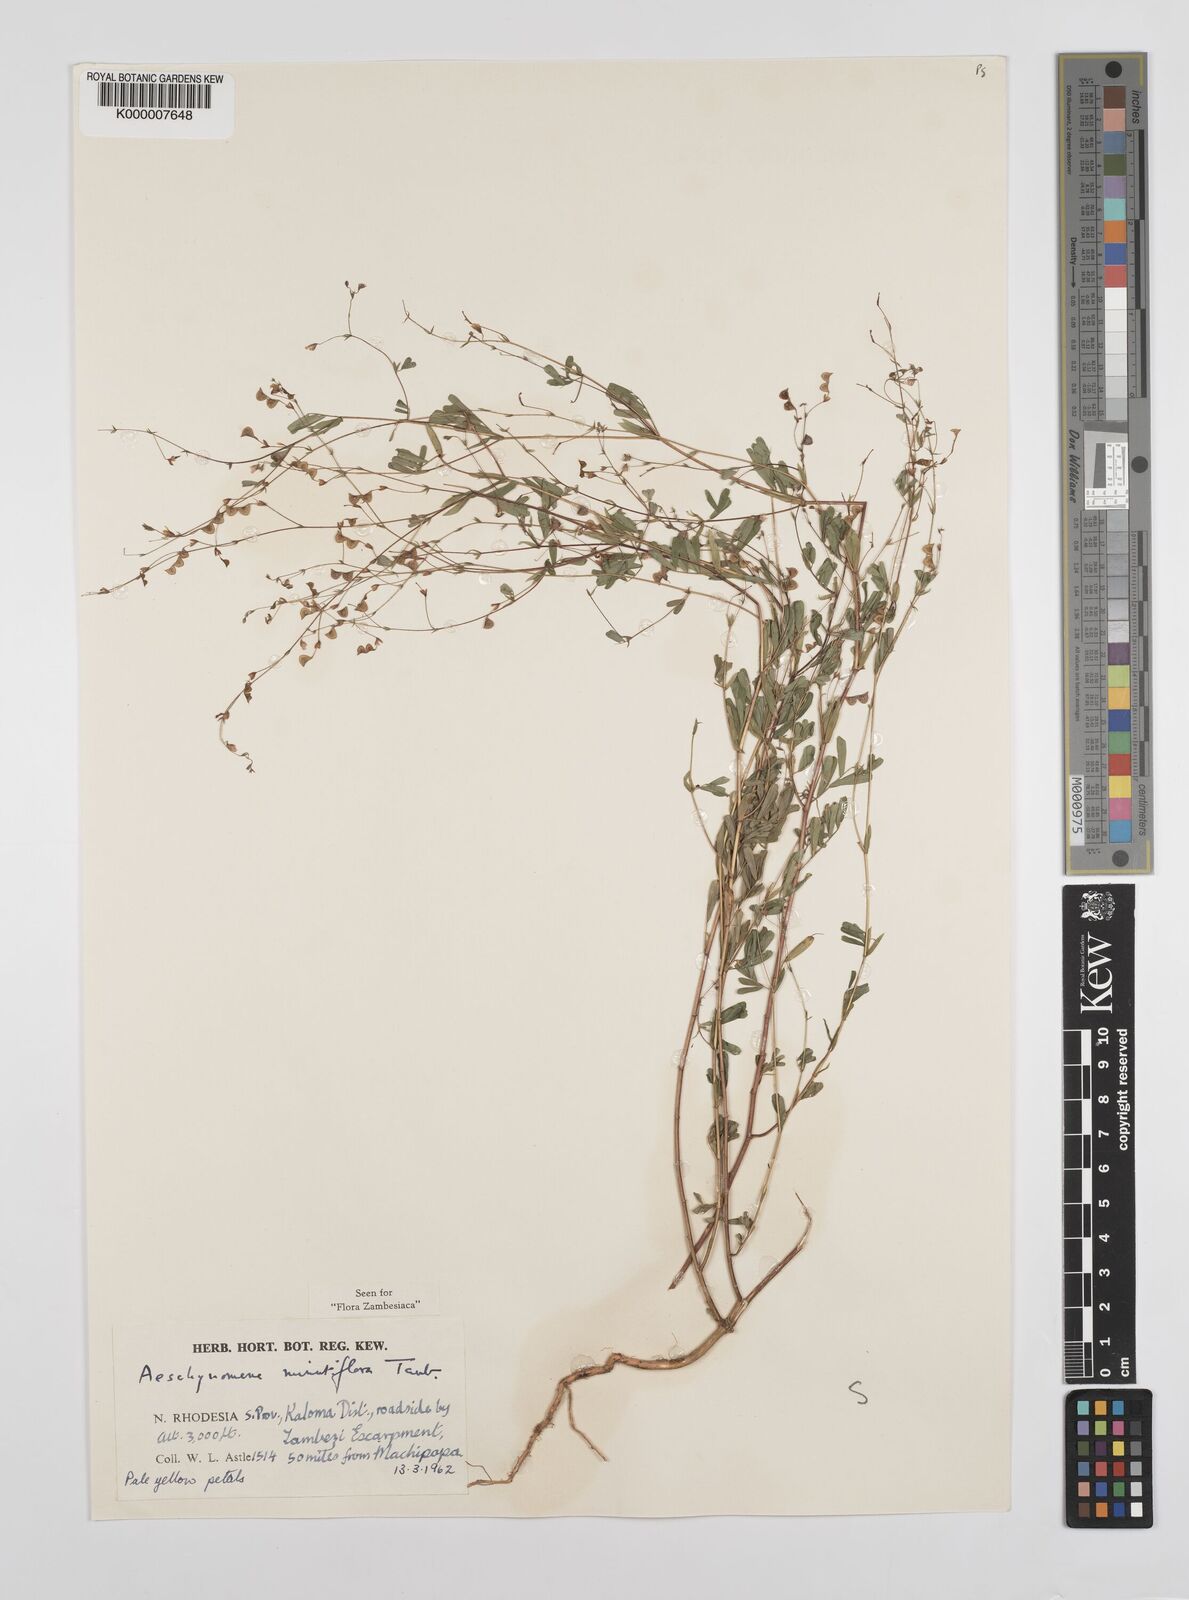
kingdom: Plantae
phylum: Tracheophyta
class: Magnoliopsida
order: Fabales
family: Fabaceae
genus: Aeschynomene
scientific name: Aeschynomene minutiflora
